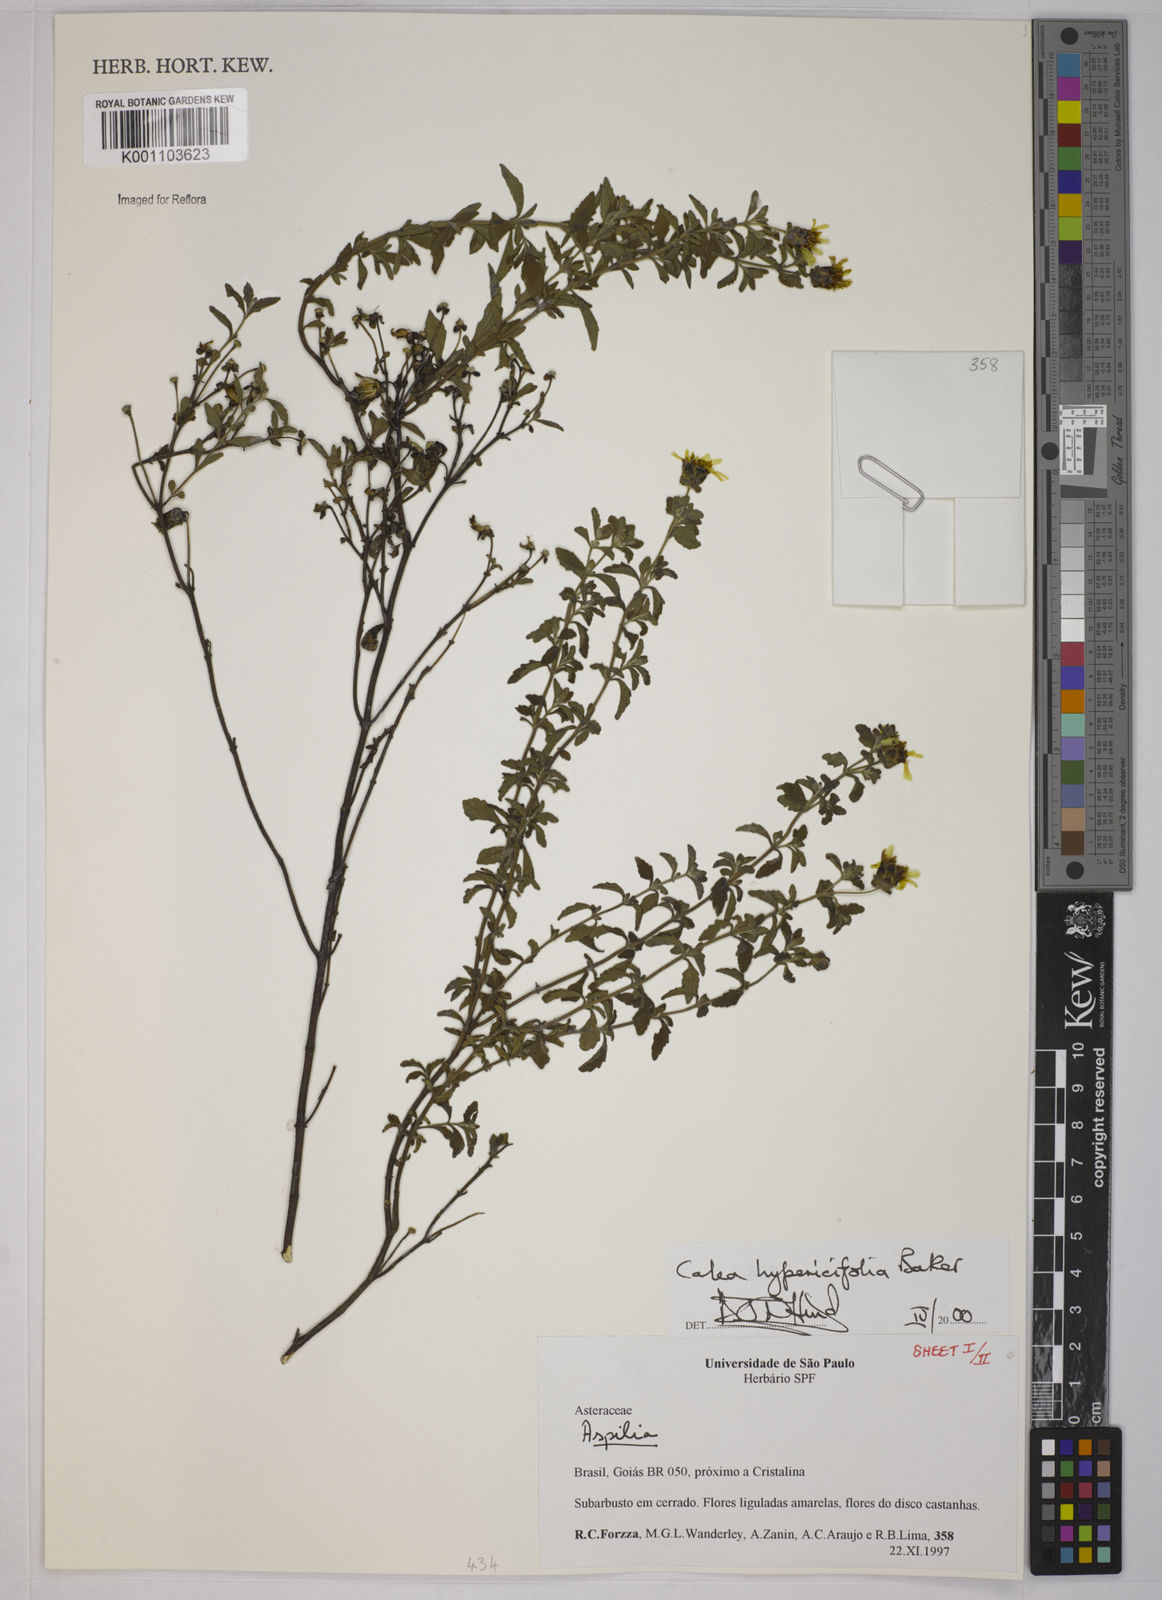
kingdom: Plantae
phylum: Tracheophyta
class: Magnoliopsida
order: Asterales
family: Asteraceae
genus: Calea
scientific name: Calea hypericifolia
